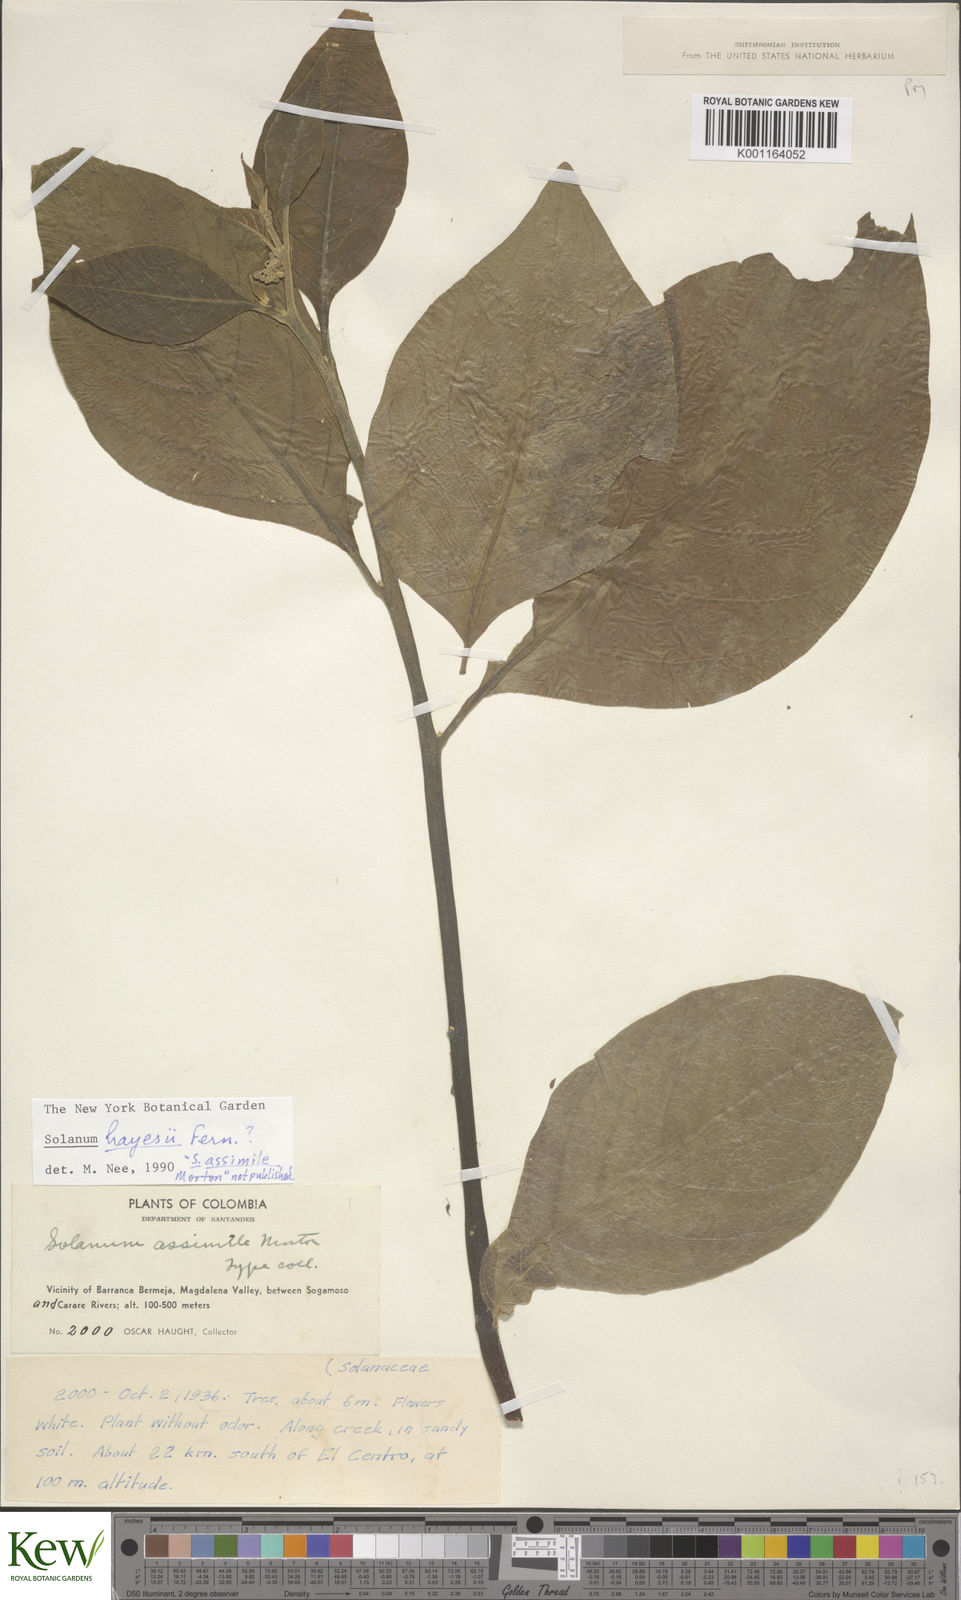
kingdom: Plantae
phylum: Tracheophyta
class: Magnoliopsida
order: Solanales
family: Solanaceae
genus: Solanum
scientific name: Solanum microleprodes
